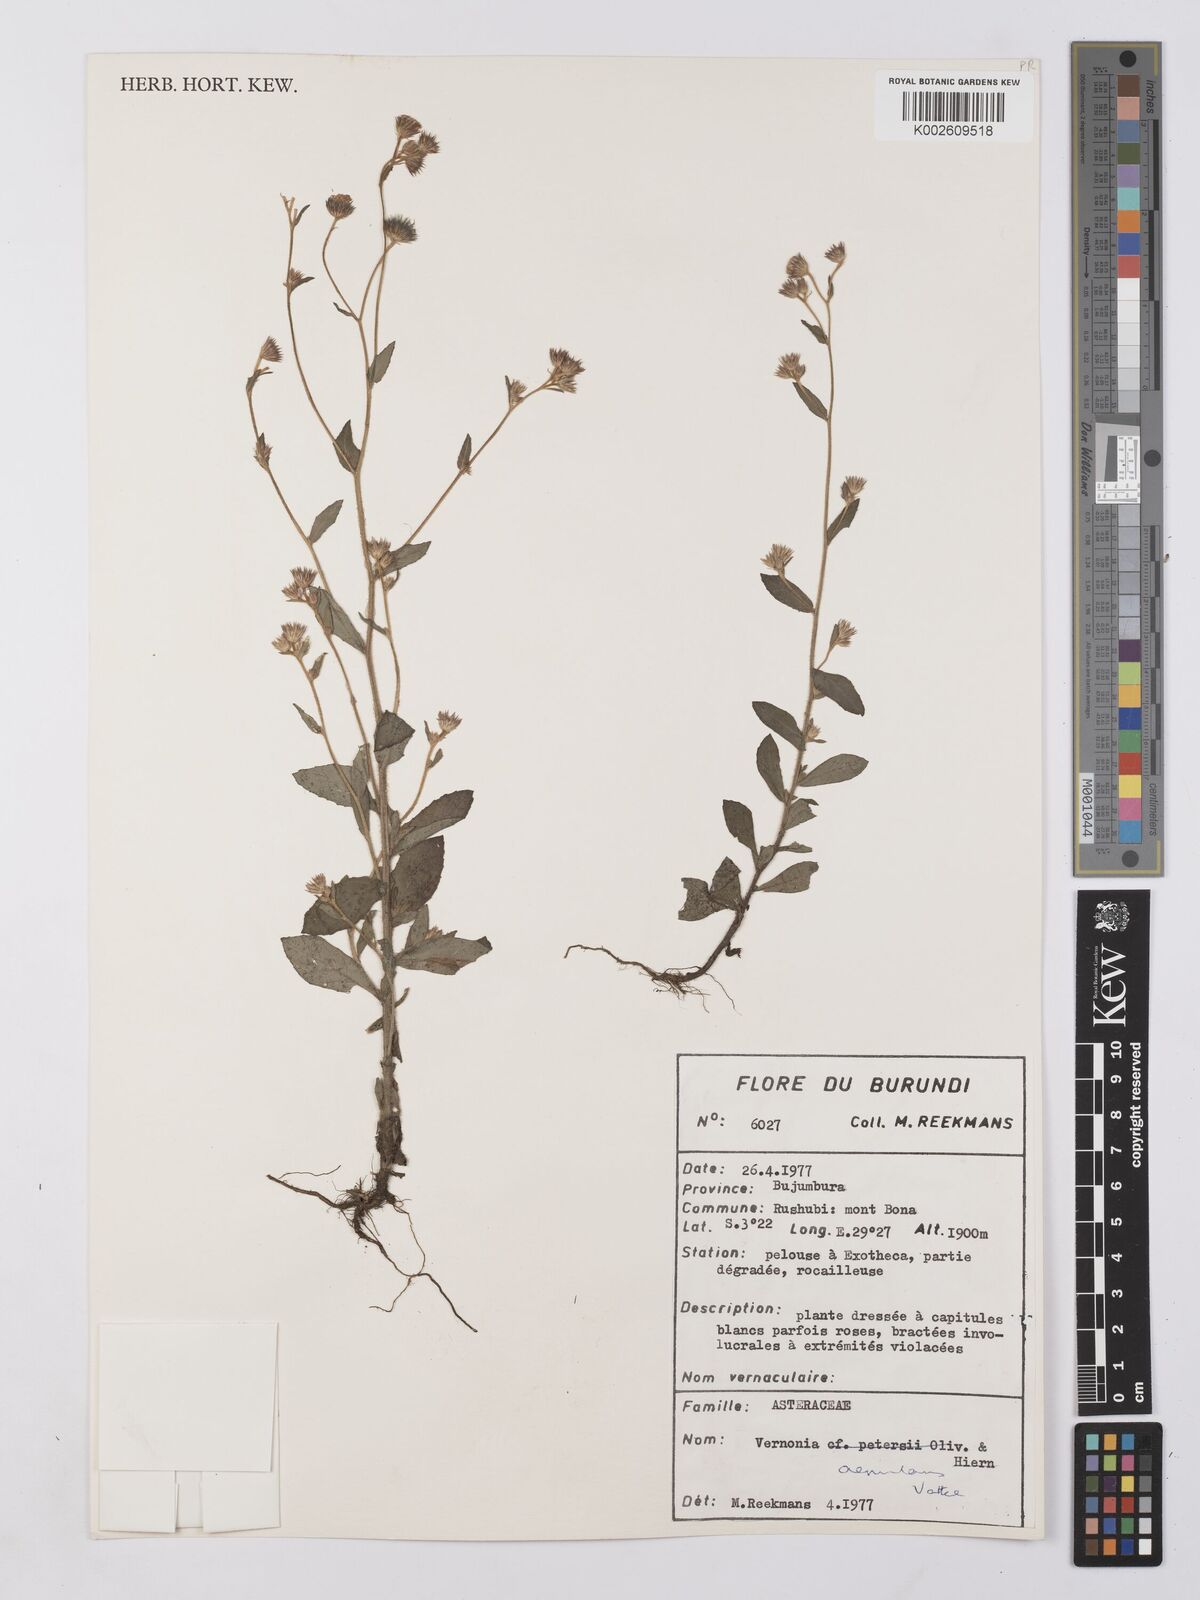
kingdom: Plantae
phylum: Tracheophyta
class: Magnoliopsida
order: Asterales
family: Asteraceae
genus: Vernonia
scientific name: Vernonia
